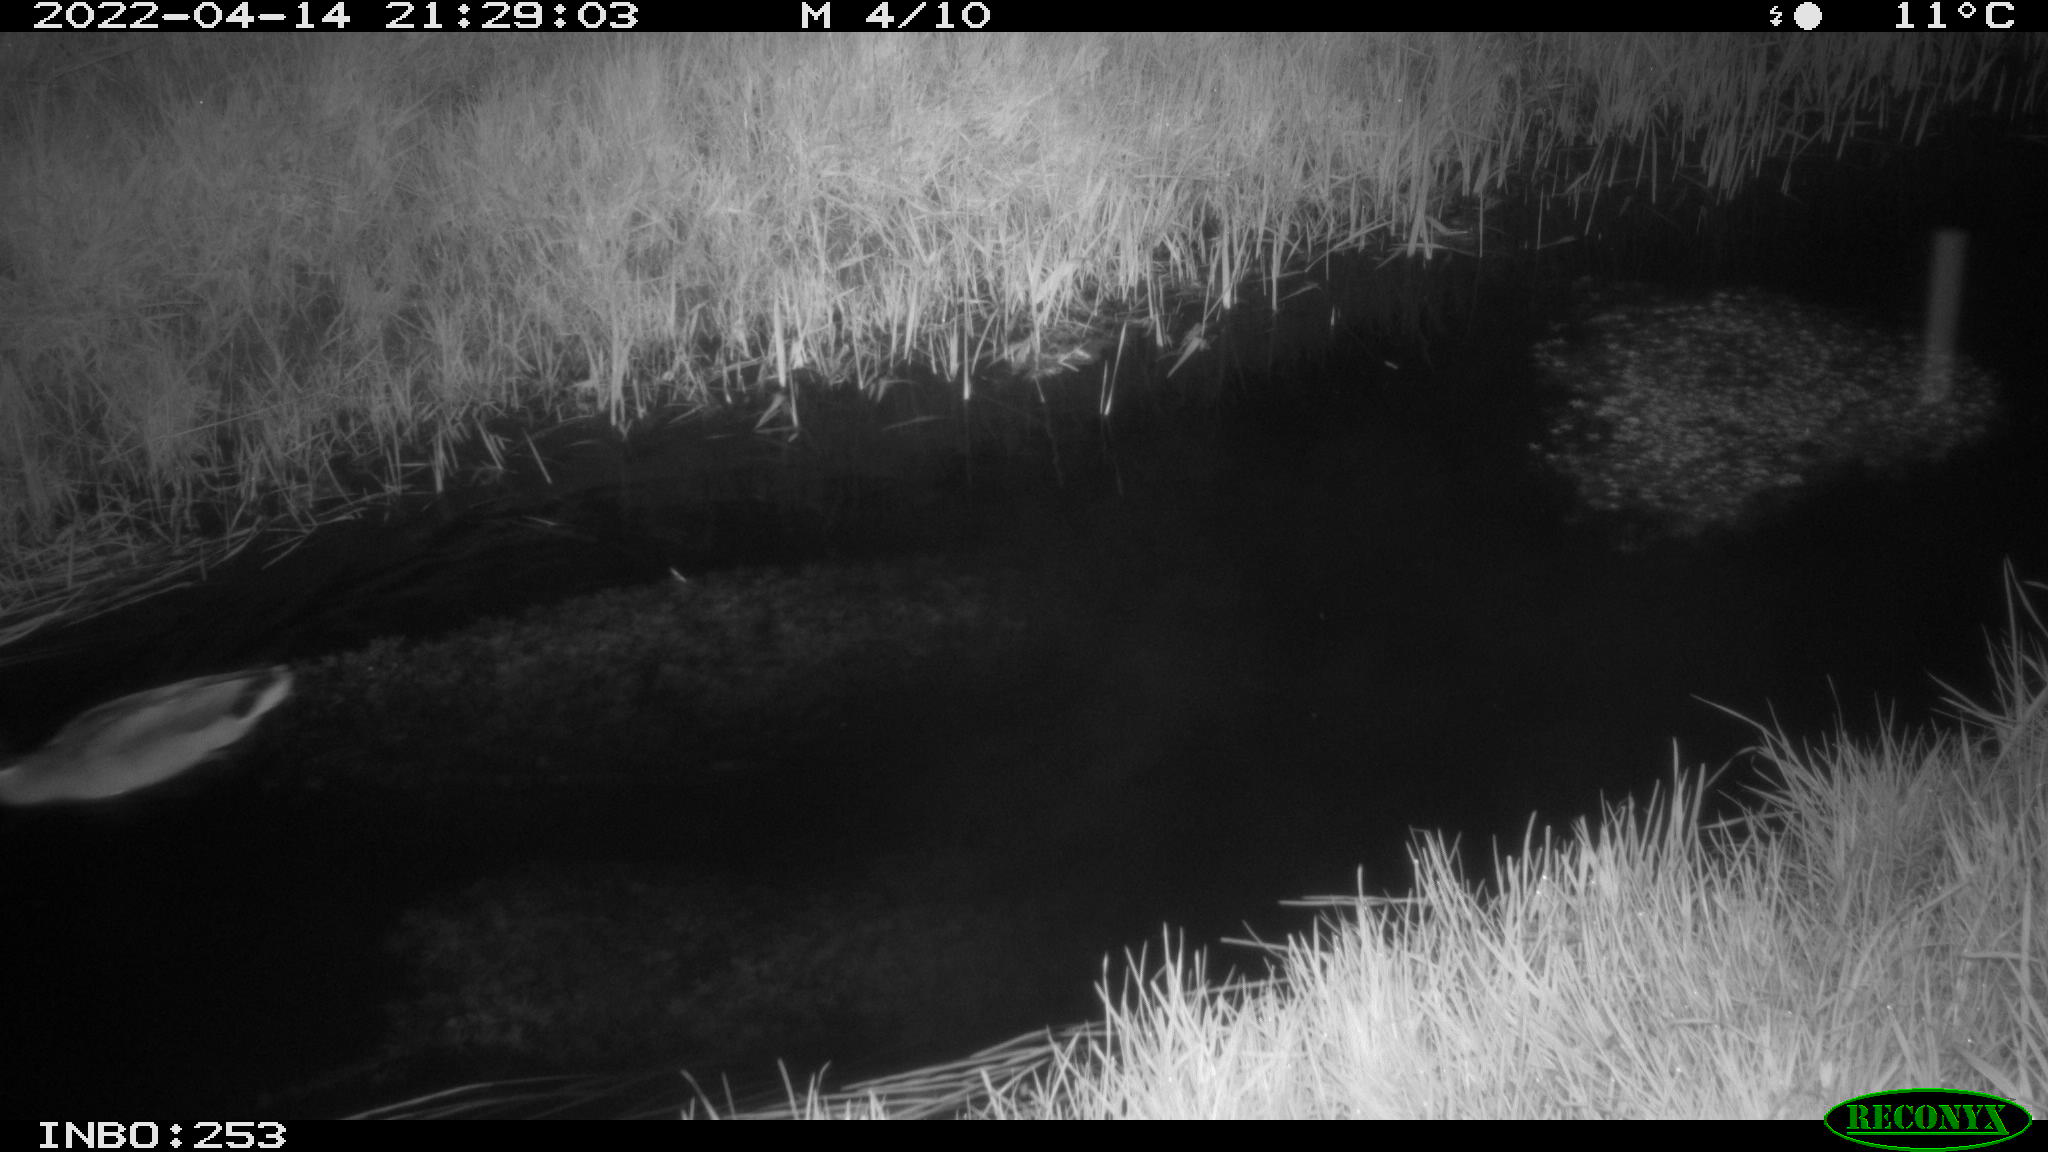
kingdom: Animalia
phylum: Chordata
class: Aves
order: Anseriformes
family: Anatidae
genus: Anas
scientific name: Anas platyrhynchos
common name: Mallard
